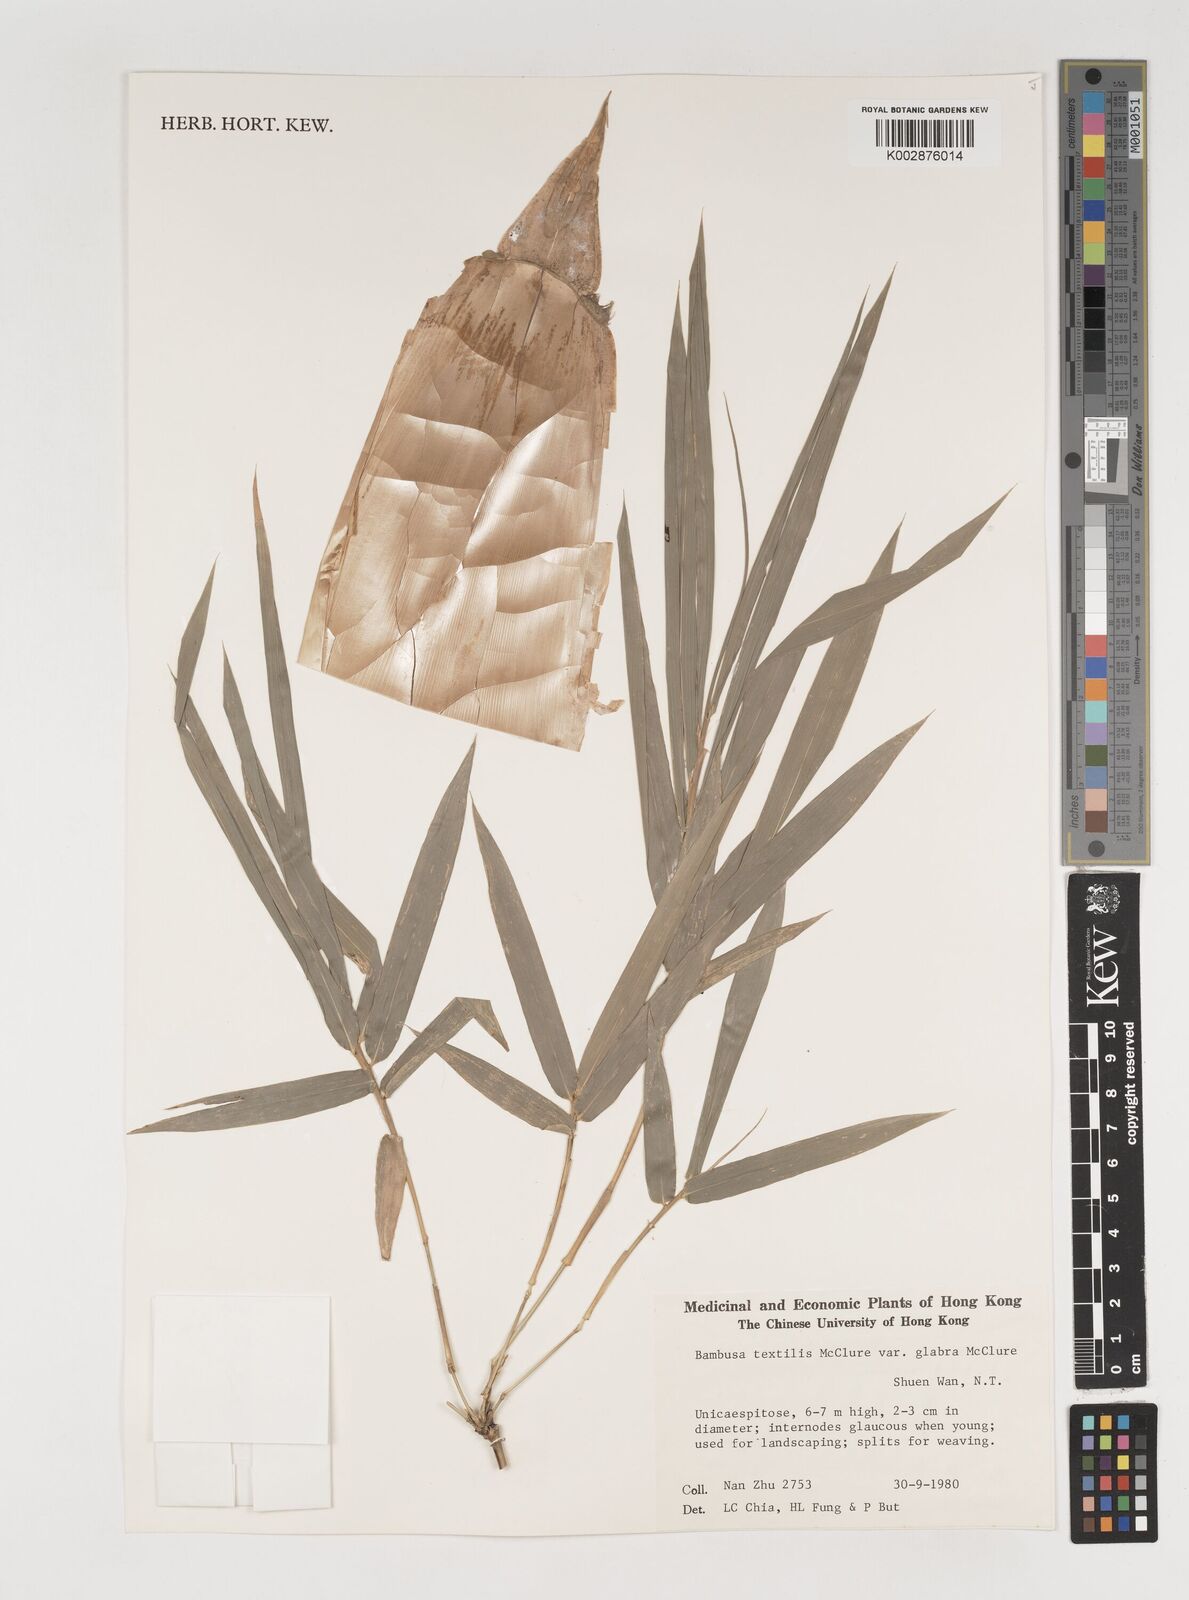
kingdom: Plantae
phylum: Tracheophyta
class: Liliopsida
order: Poales
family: Poaceae
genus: Bambusa
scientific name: Bambusa textilis
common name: Weaver's bamboo
